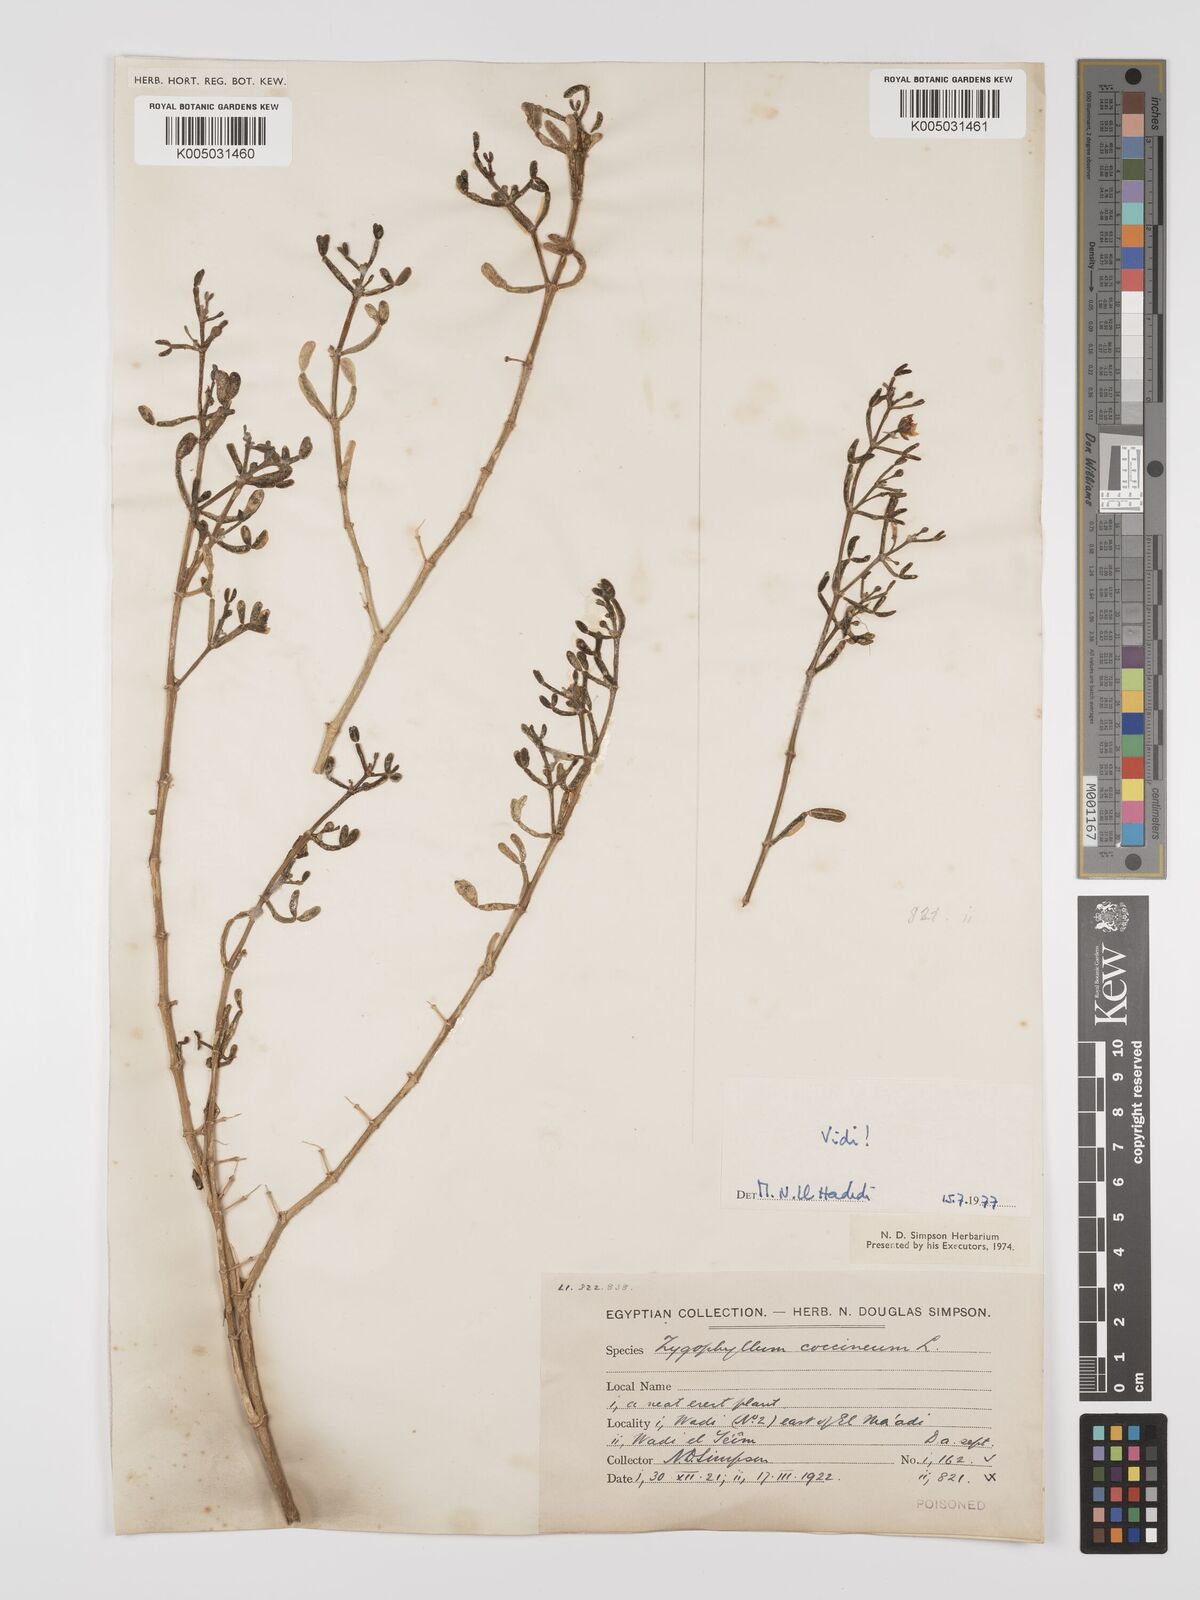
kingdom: Plantae
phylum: Tracheophyta
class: Magnoliopsida
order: Zygophyllales
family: Zygophyllaceae
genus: Zygophyllum
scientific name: Zygophyllum
